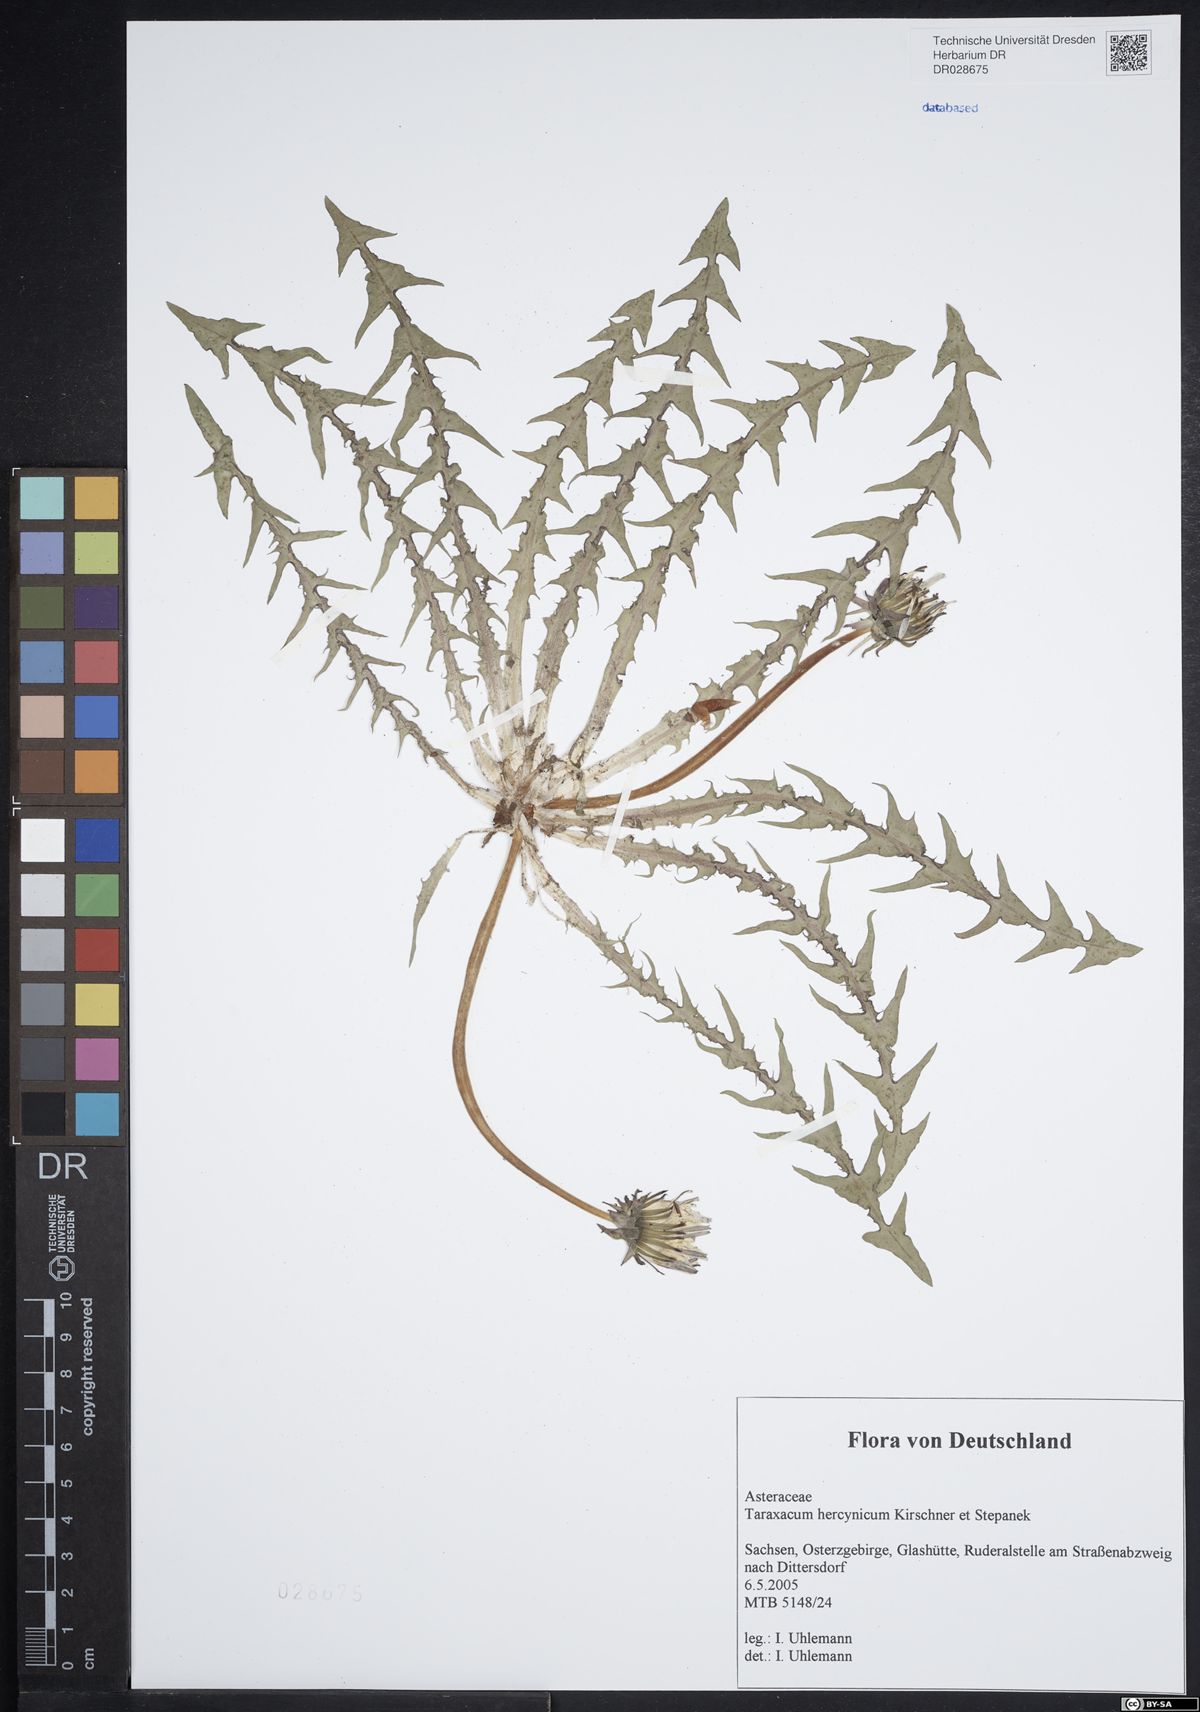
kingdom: Plantae
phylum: Tracheophyta
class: Magnoliopsida
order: Asterales
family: Asteraceae
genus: Taraxacum
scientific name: Taraxacum hercynicum
